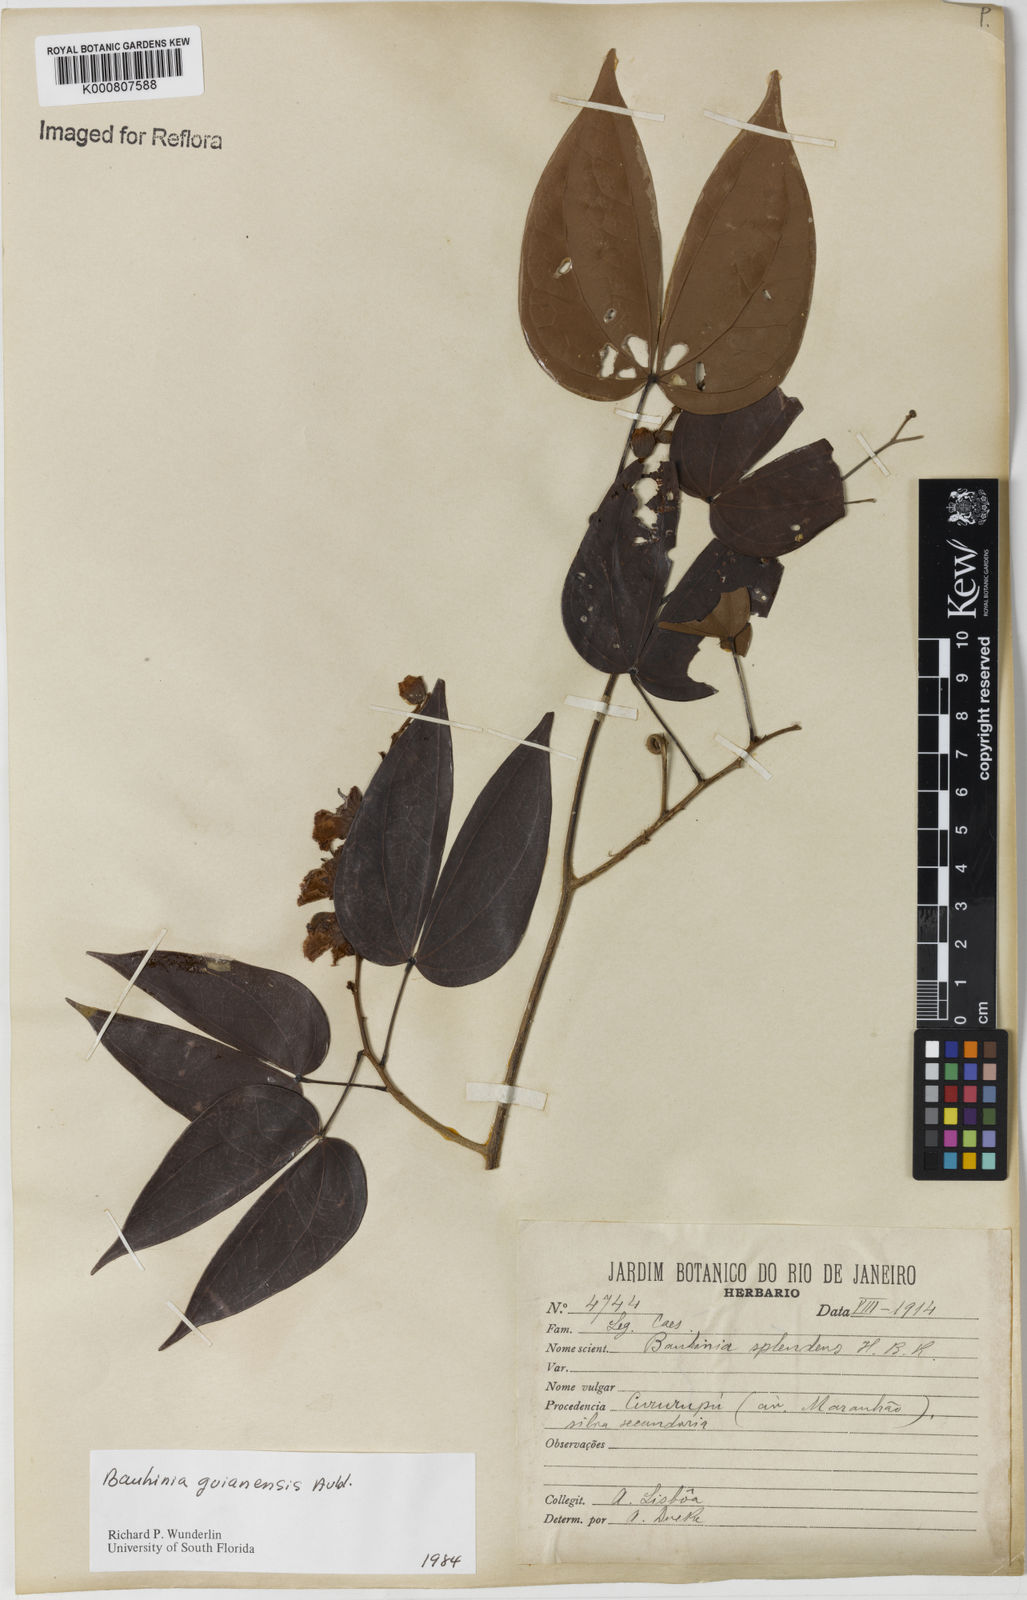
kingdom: Plantae
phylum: Tracheophyta
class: Magnoliopsida
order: Fabales
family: Fabaceae
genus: Schnella
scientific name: Schnella guianensis
